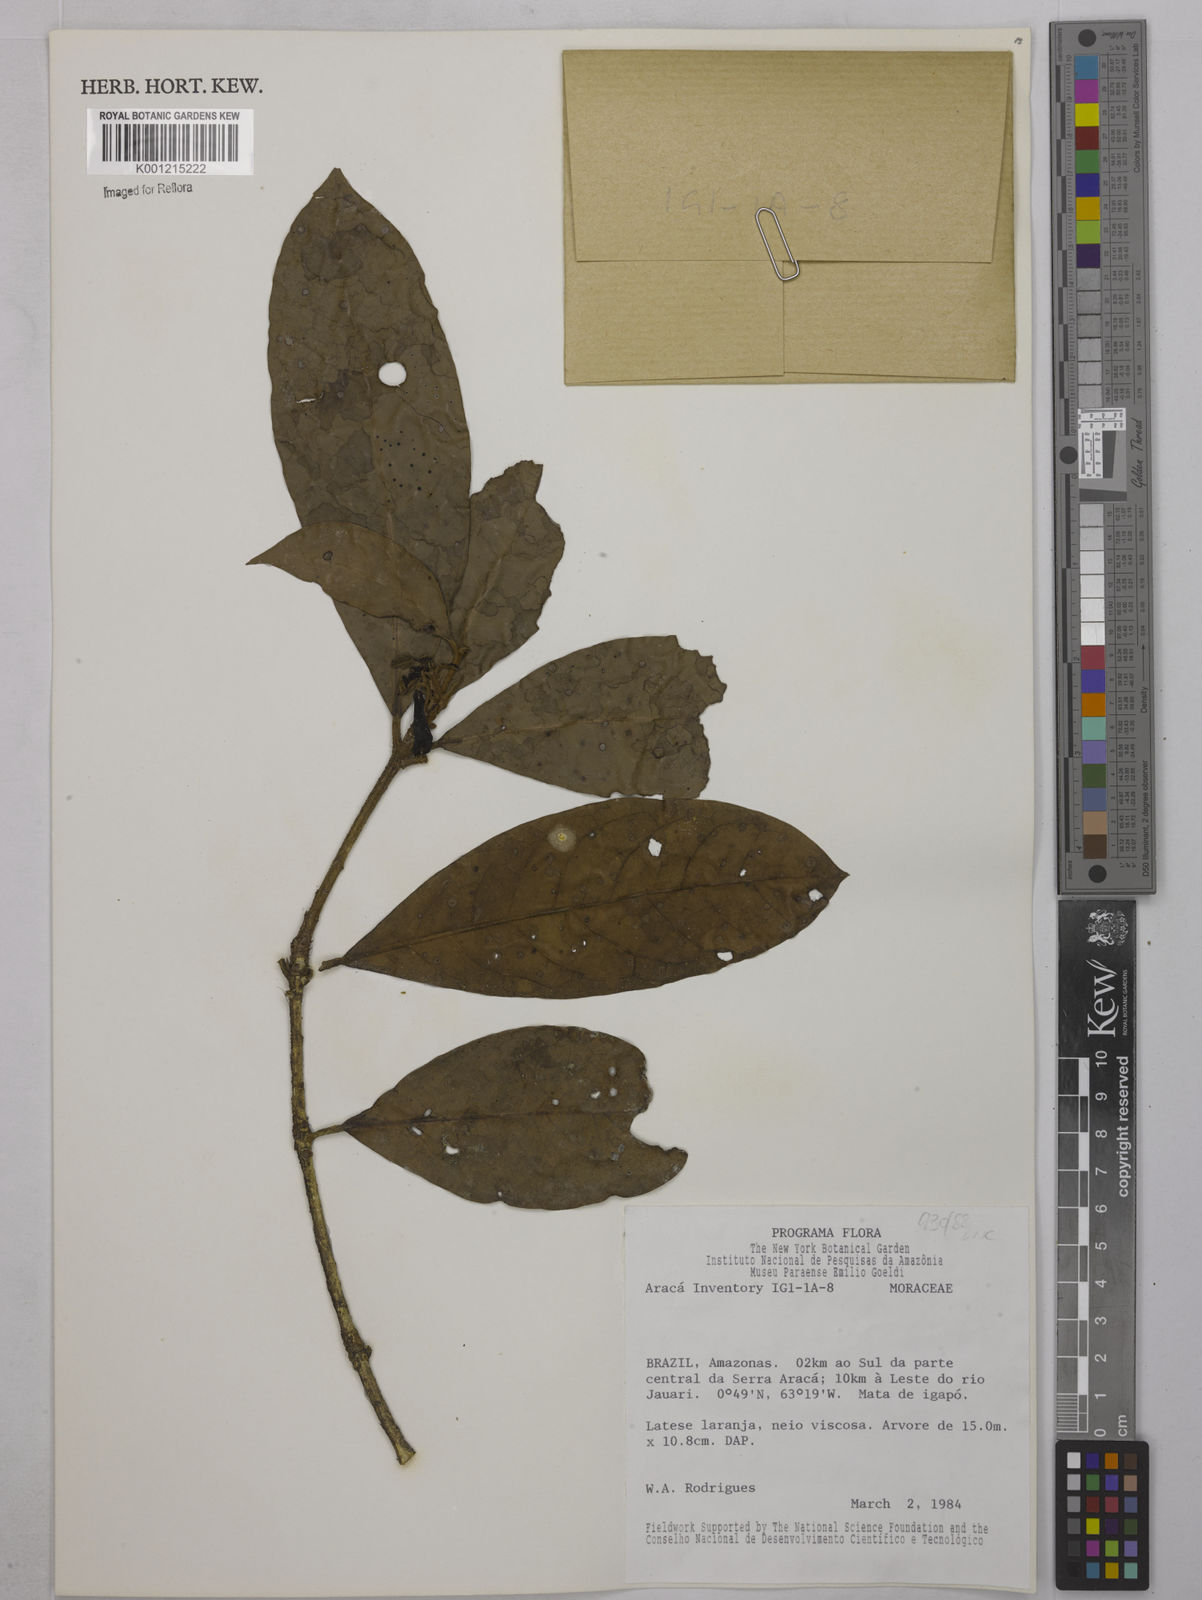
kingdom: Plantae
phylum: Tracheophyta
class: Magnoliopsida
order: Malpighiales
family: Euphorbiaceae
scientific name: Euphorbiaceae
